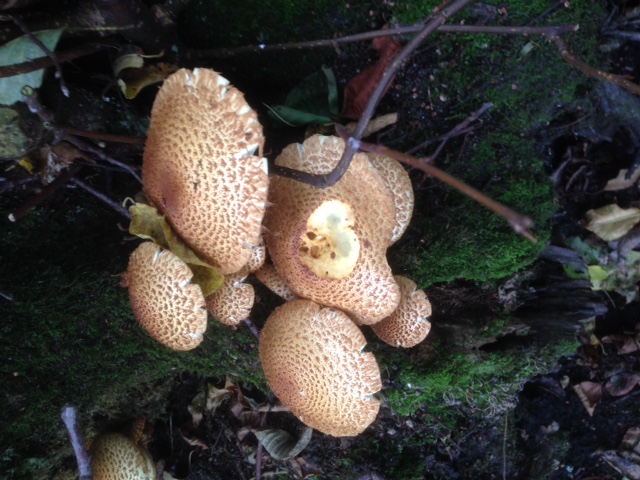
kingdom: Fungi
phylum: Basidiomycota
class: Agaricomycetes
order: Agaricales
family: Strophariaceae
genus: Pholiota
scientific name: Pholiota squarrosa
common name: krumskællet skælhat
